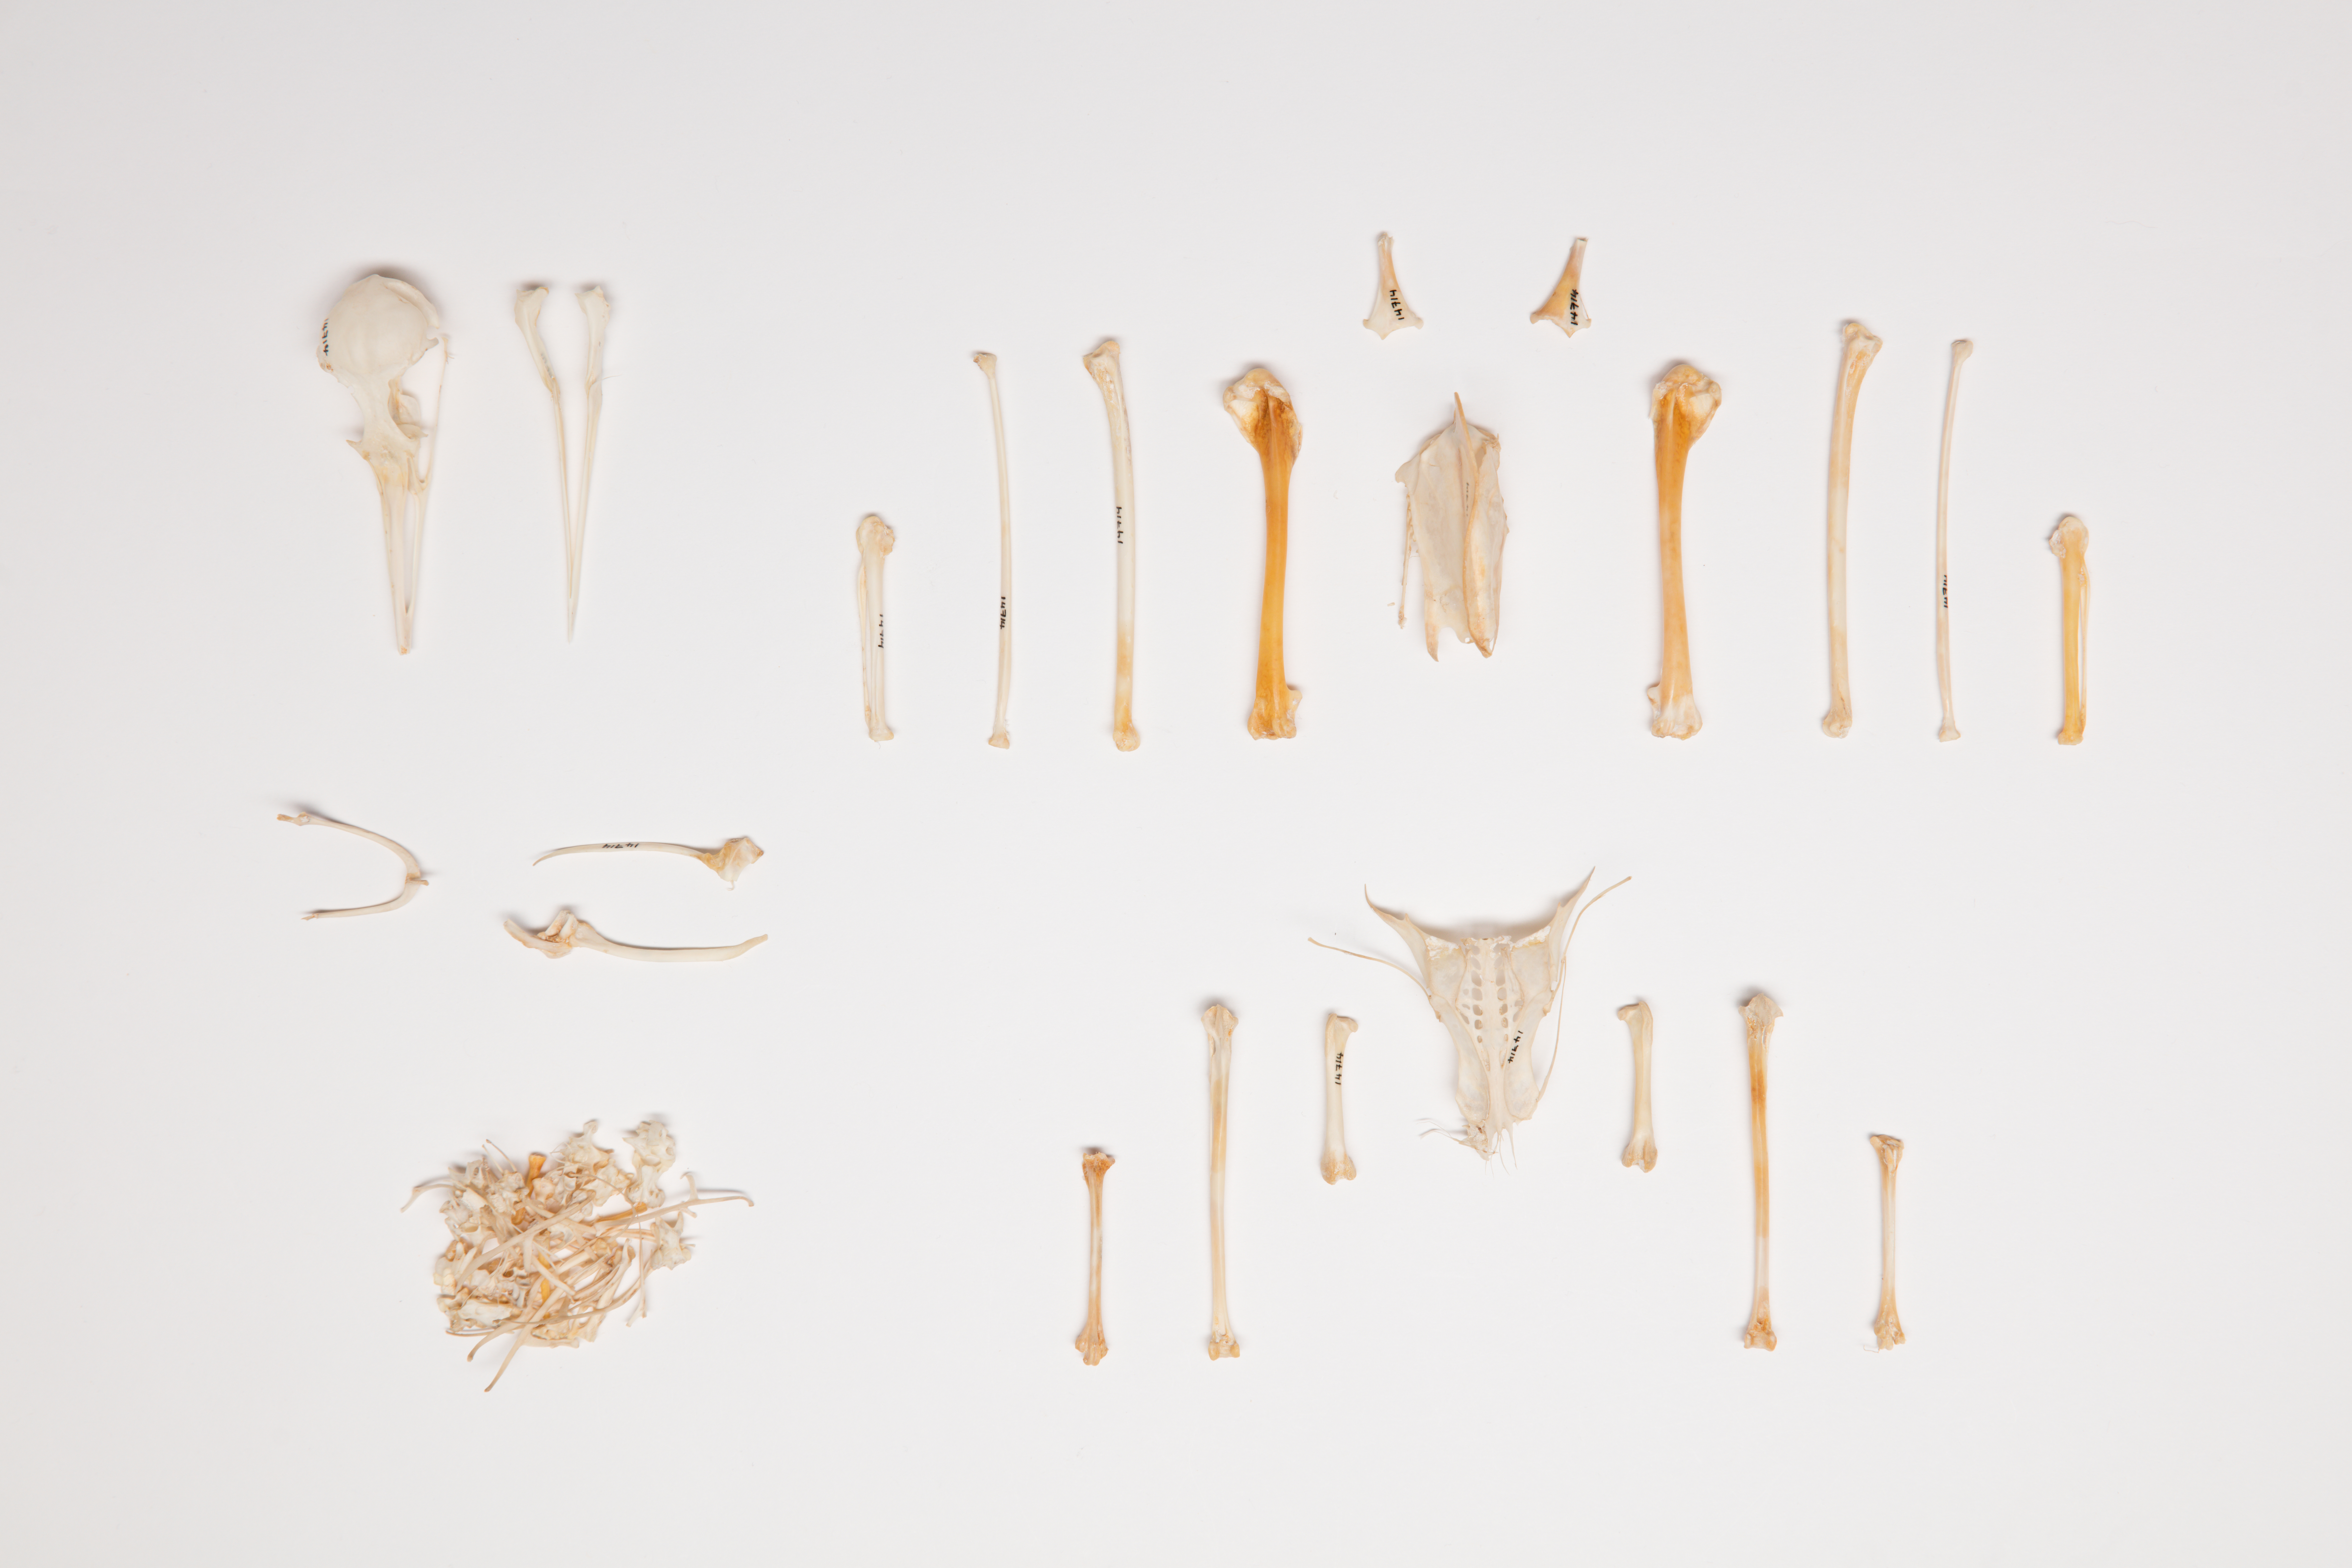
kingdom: Animalia
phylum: Chordata
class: Aves
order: Charadriiformes
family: Laridae
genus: Chroicocephalus
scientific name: Chroicocephalus bulleri
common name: Black-billed gull
